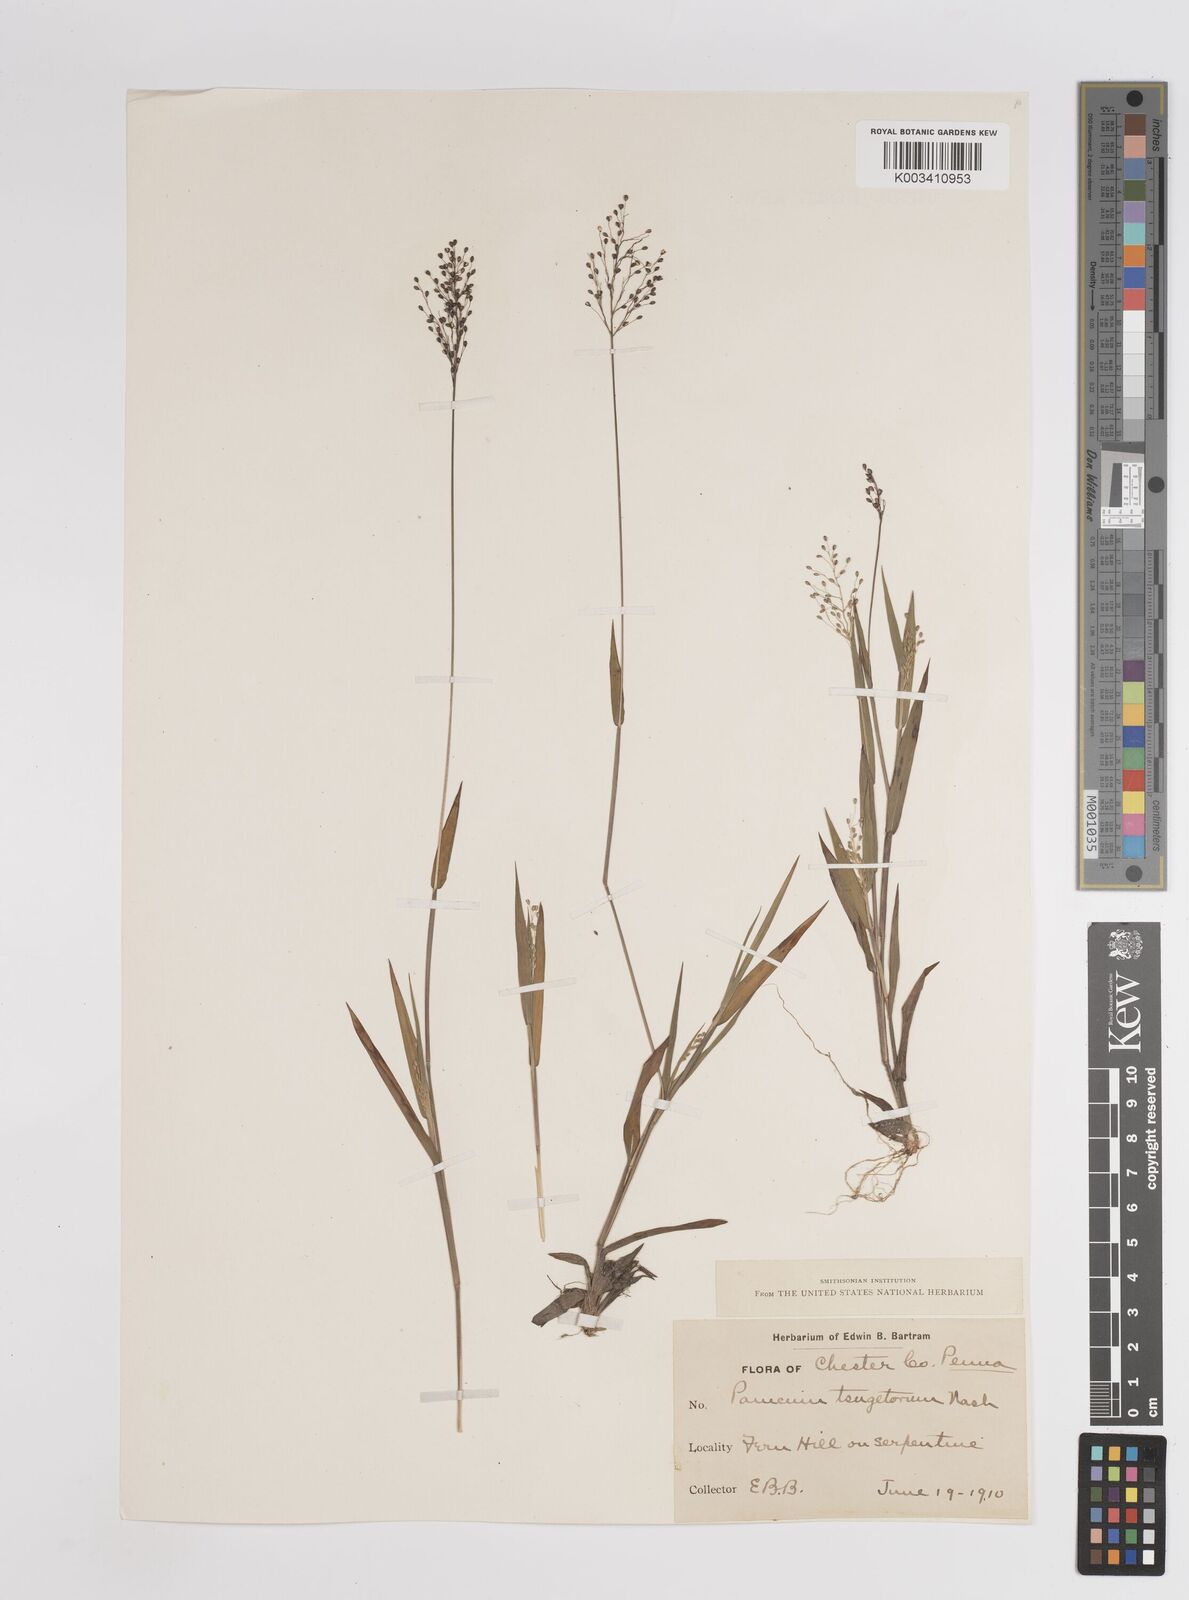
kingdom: Plantae
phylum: Tracheophyta
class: Liliopsida
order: Poales
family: Poaceae
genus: Dichanthelium
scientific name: Dichanthelium columbianum
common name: Hemlock panic grass
